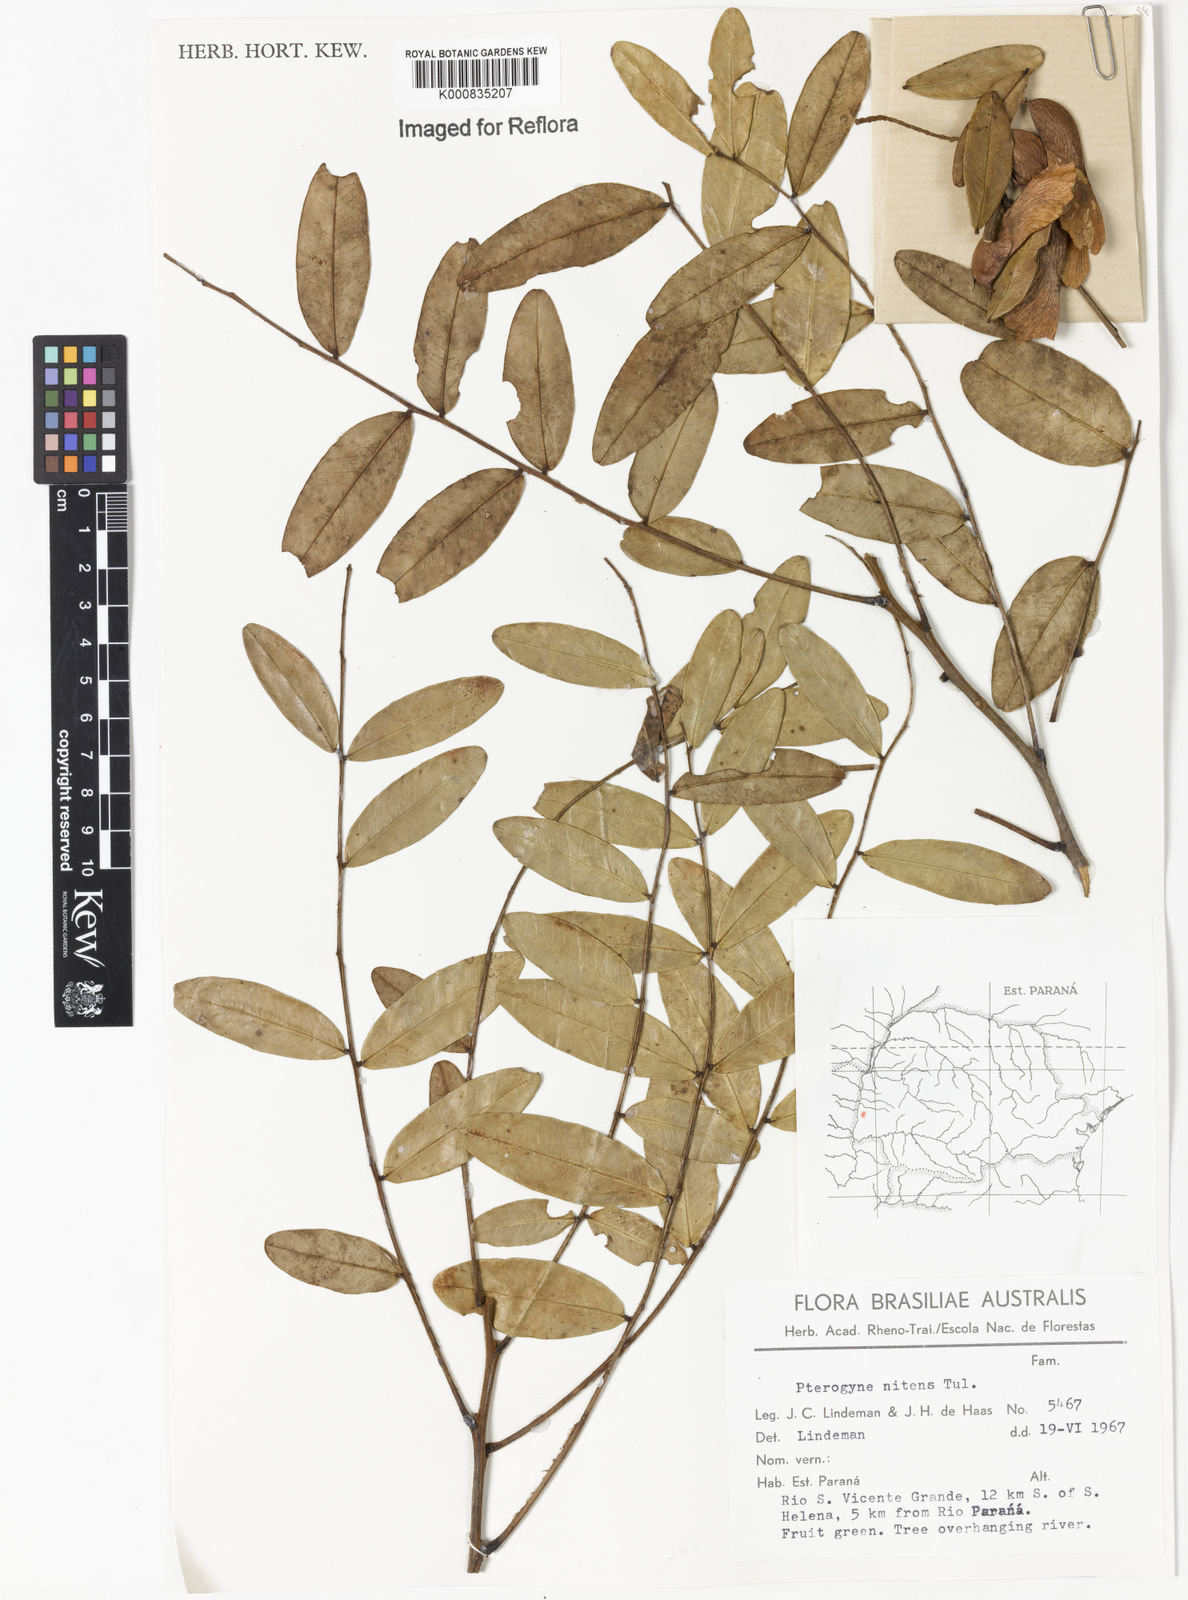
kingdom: Plantae
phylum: Tracheophyta
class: Magnoliopsida
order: Fabales
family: Fabaceae
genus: Pterogyne
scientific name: Pterogyne nitens
